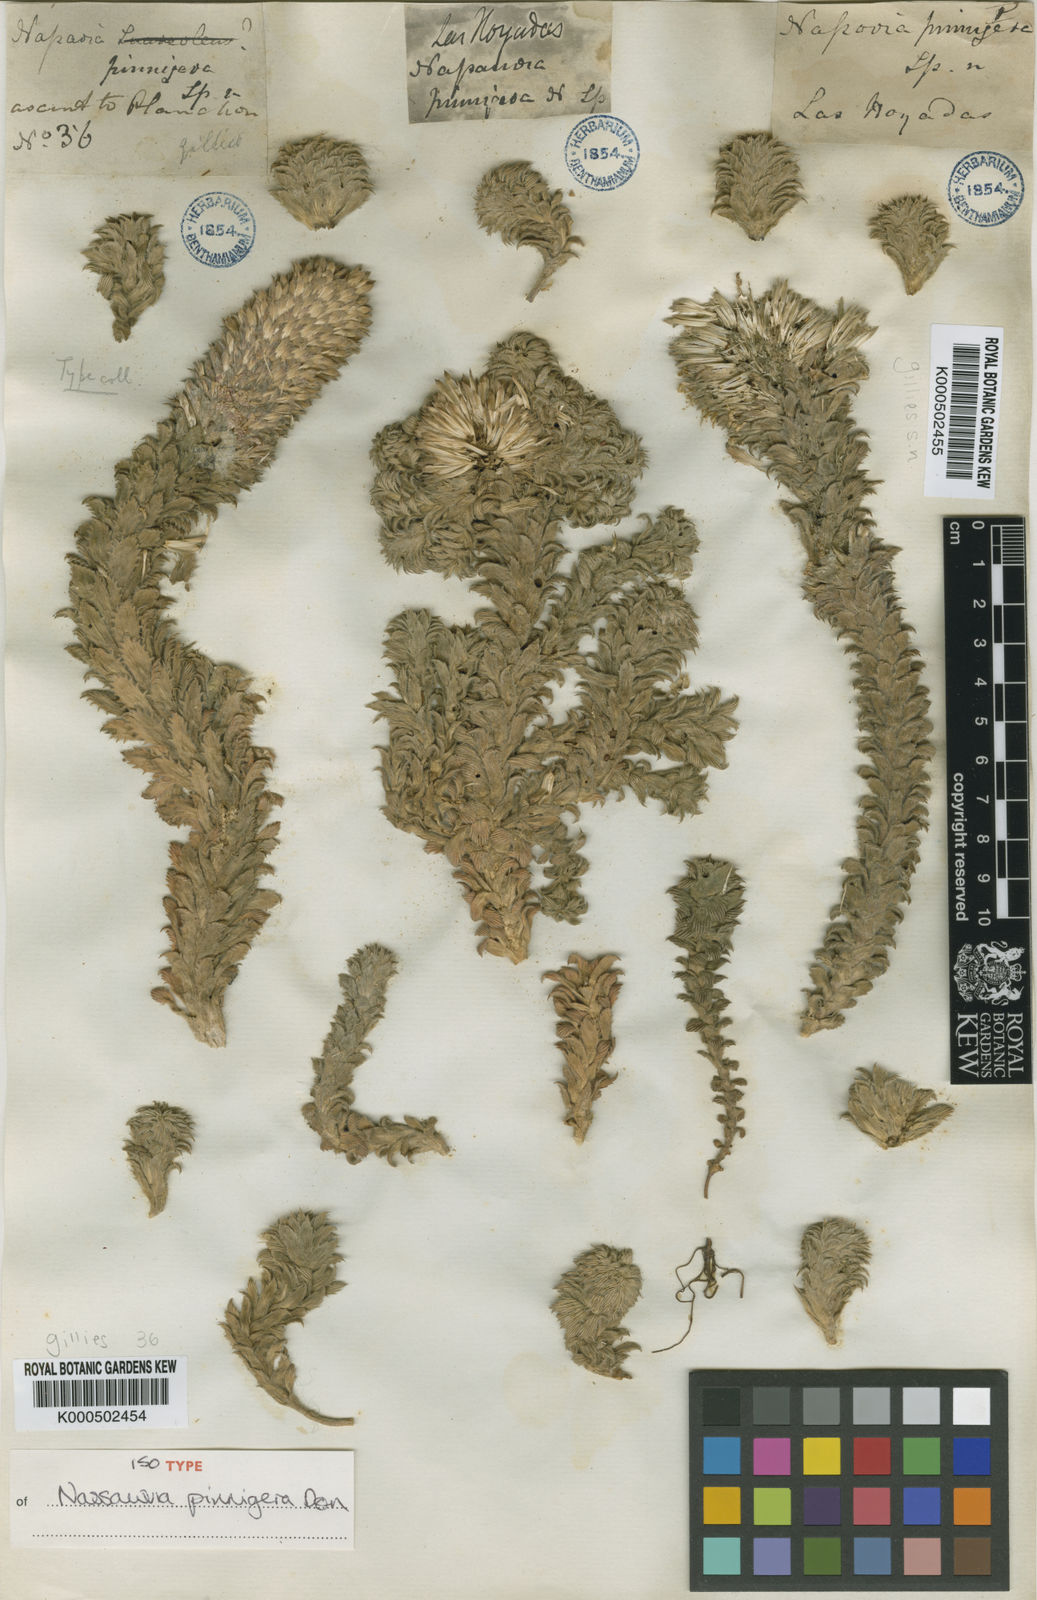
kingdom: Plantae
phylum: Tracheophyta
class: Magnoliopsida
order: Asterales
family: Asteraceae
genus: Nassauvia
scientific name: Nassauvia pinnigera
